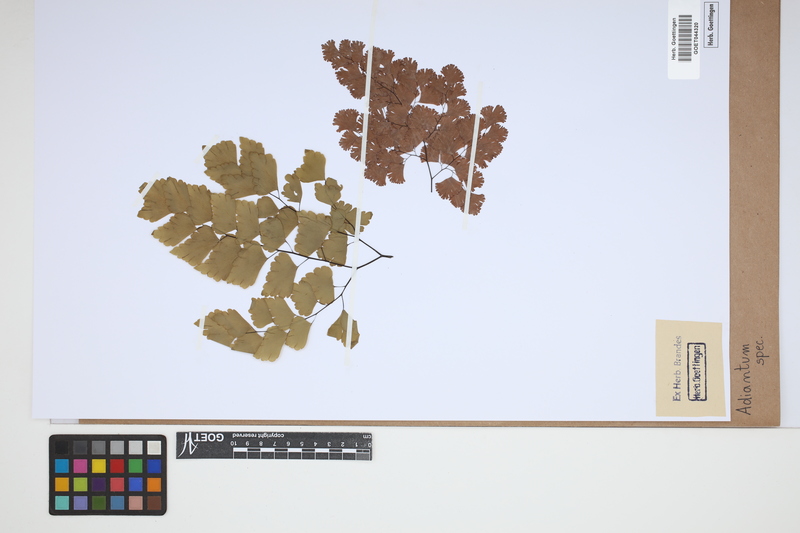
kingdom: Plantae
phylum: Tracheophyta
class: Polypodiopsida
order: Polypodiales
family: Pteridaceae
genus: Adiantum
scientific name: Adiantum
